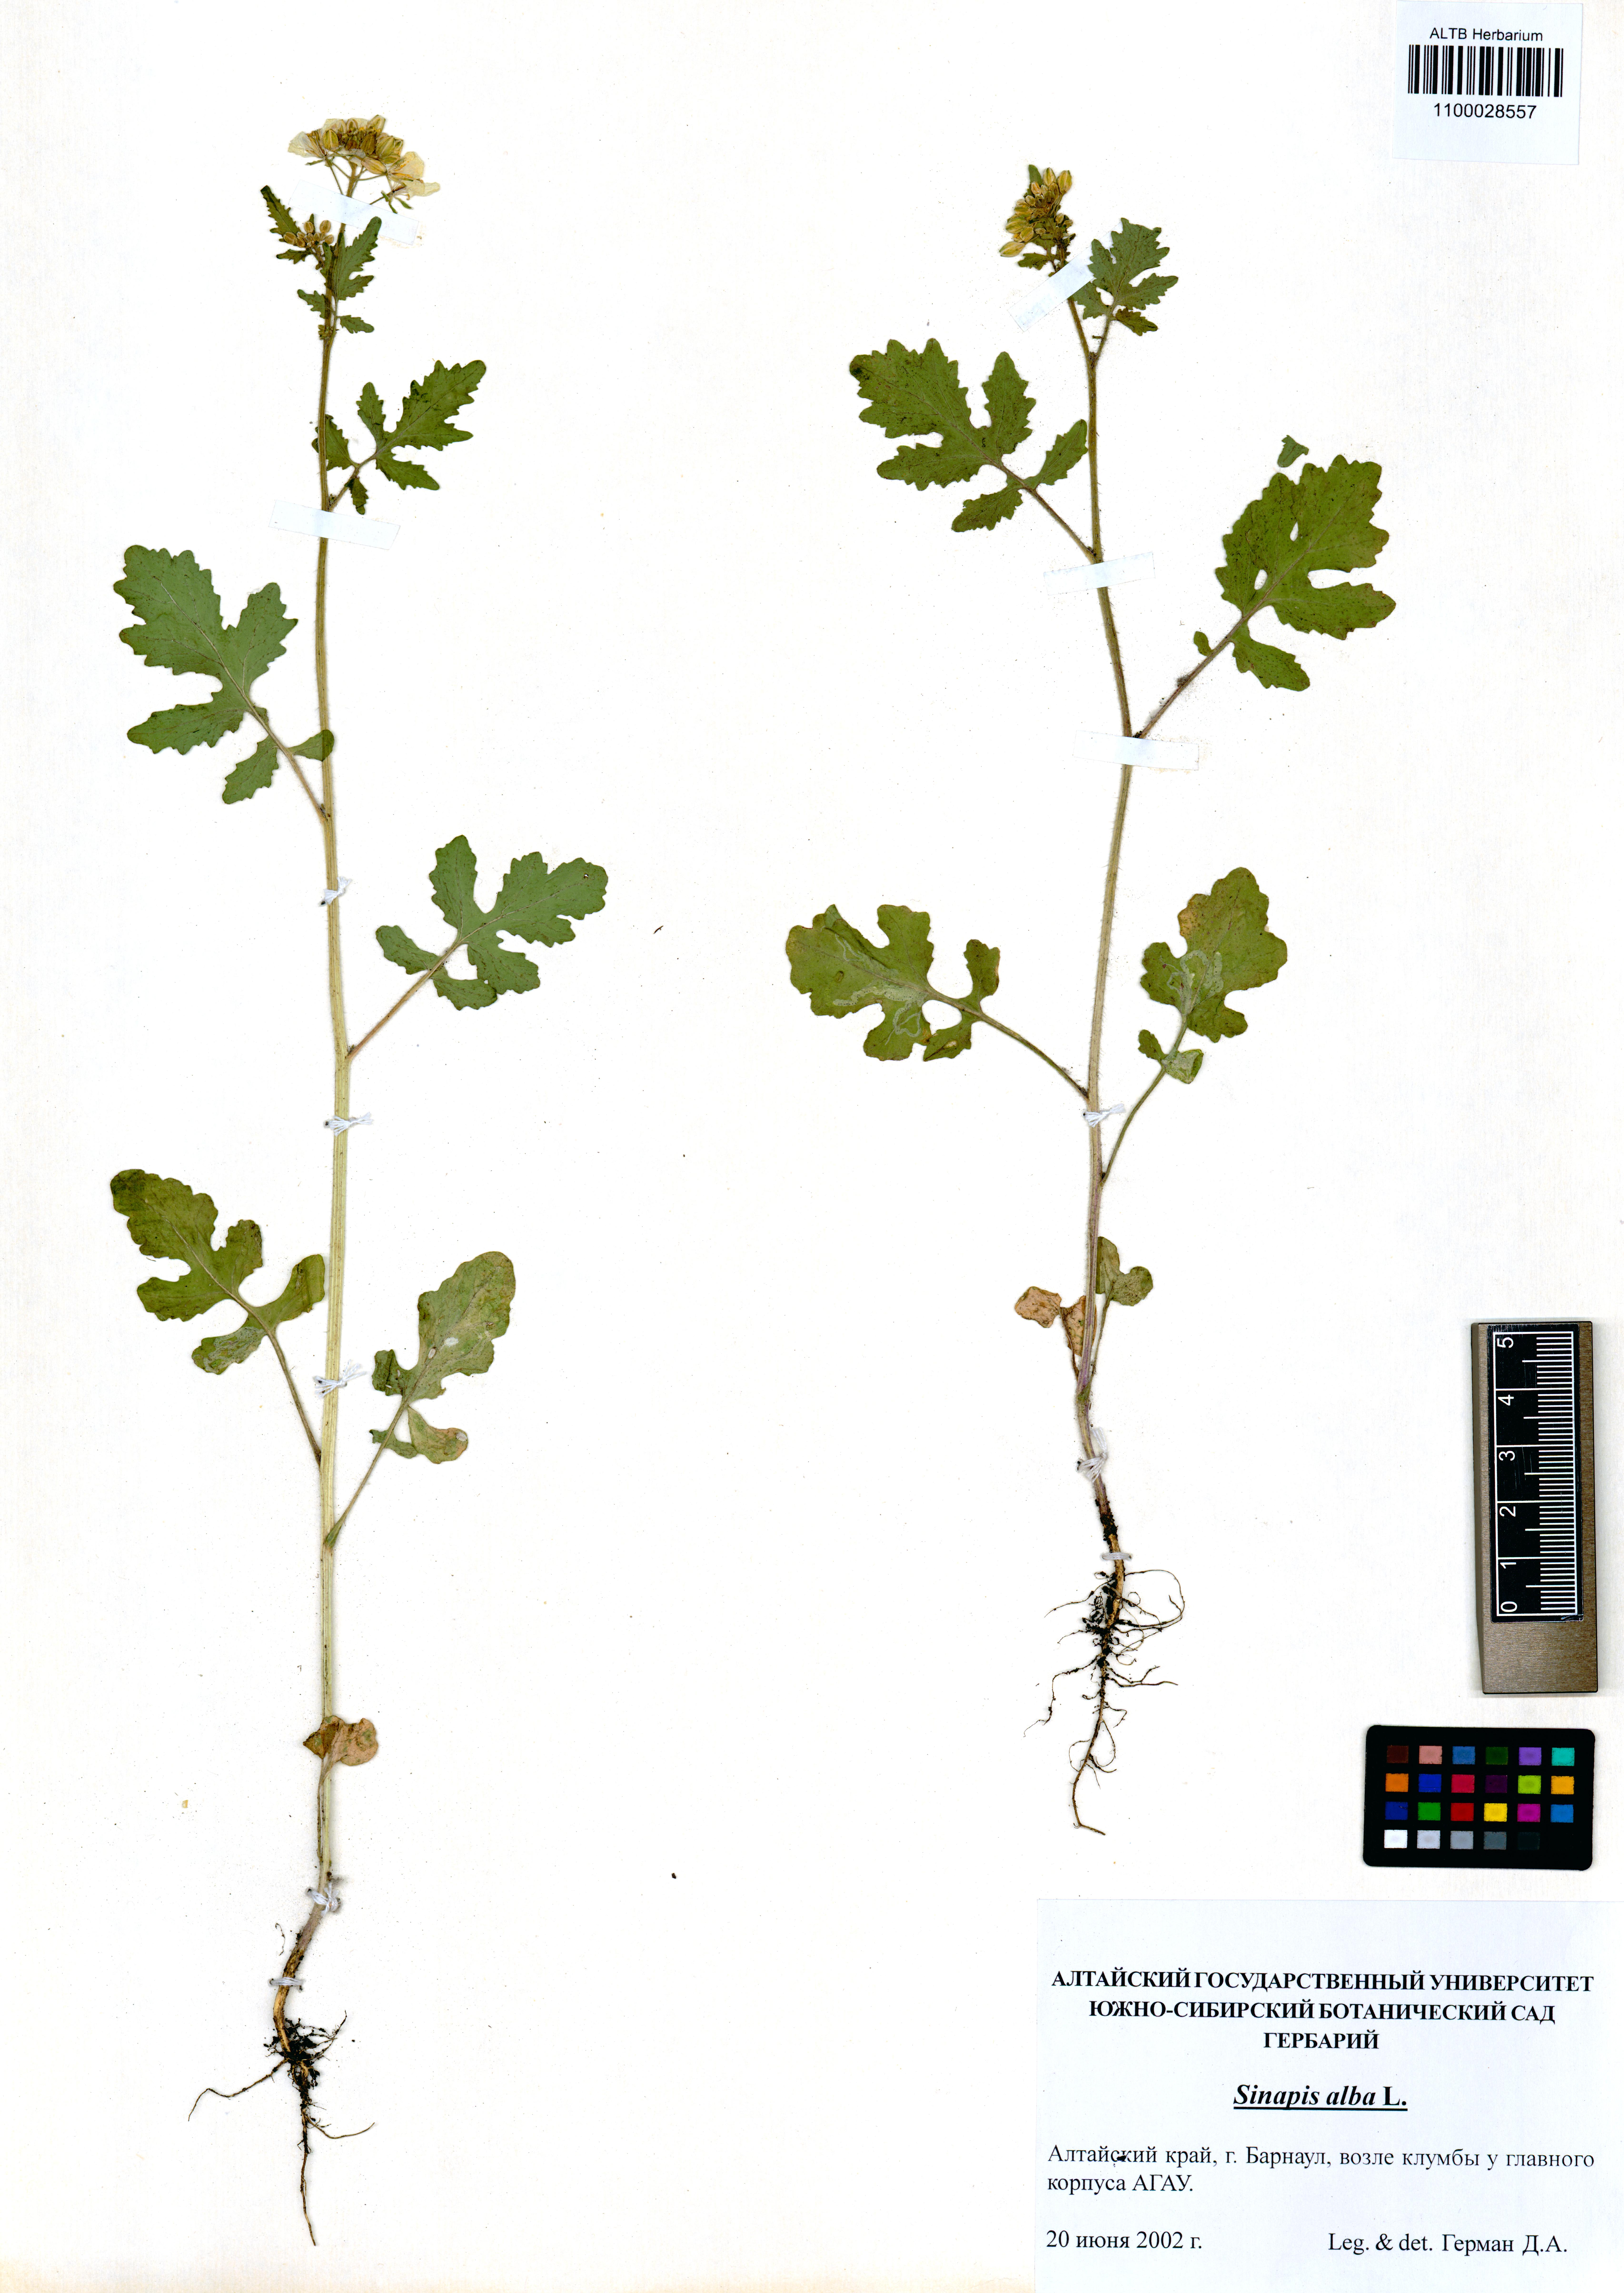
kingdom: Plantae
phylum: Tracheophyta
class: Magnoliopsida
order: Brassicales
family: Brassicaceae
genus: Sinapis
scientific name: Sinapis alba
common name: White mustard
